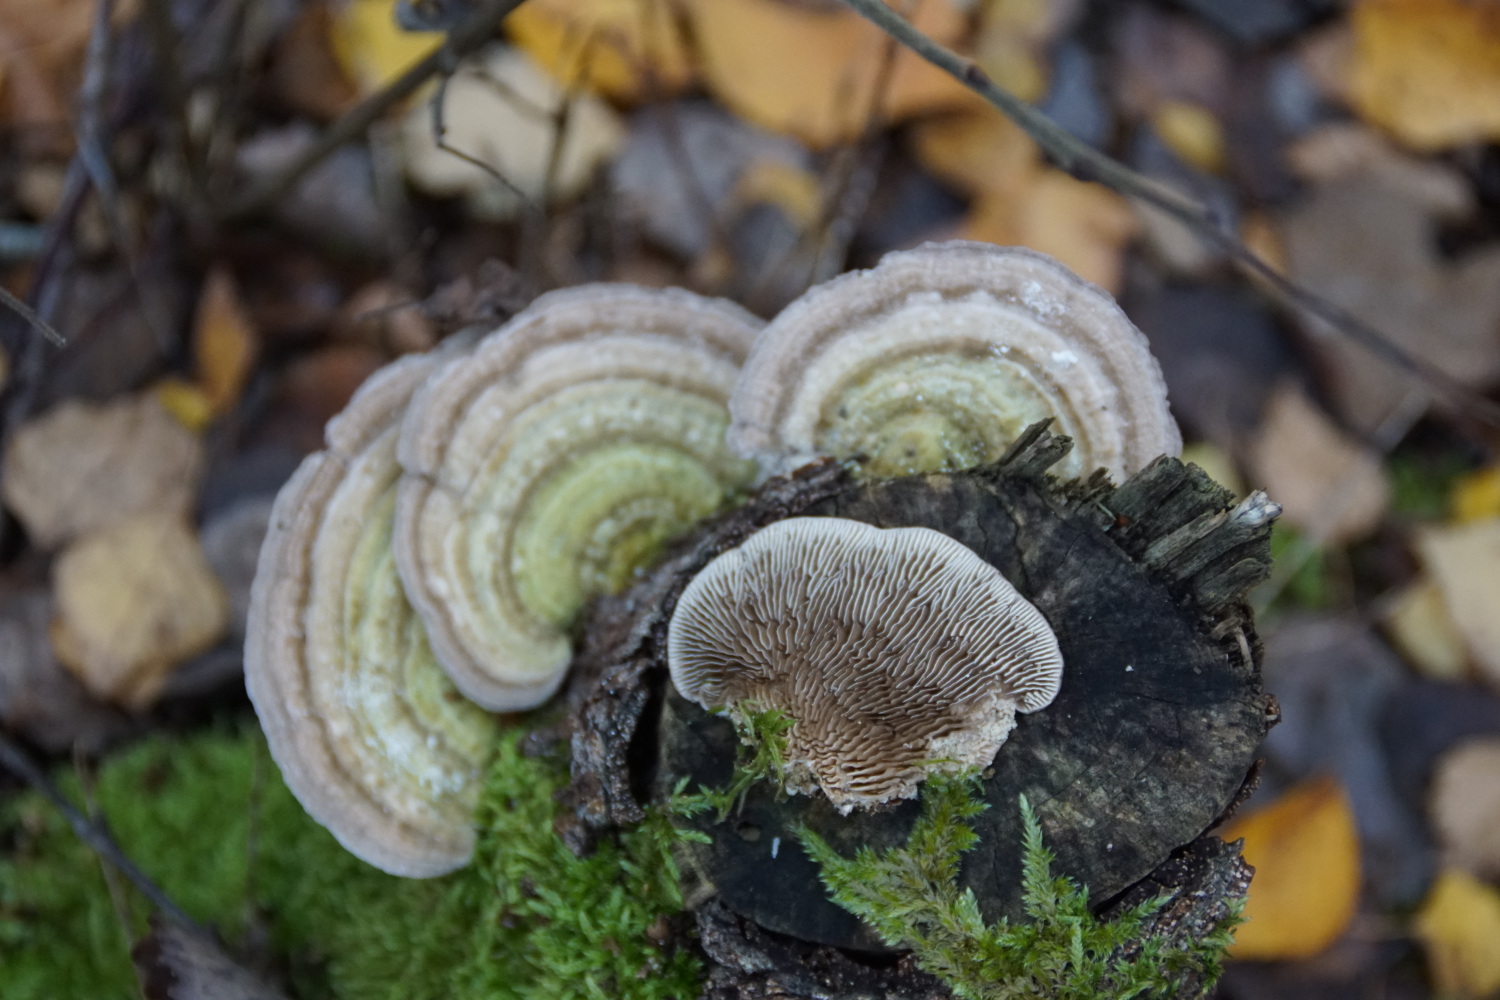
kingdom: Fungi
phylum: Basidiomycota
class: Agaricomycetes
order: Polyporales
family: Polyporaceae
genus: Lenzites
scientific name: Lenzites betulinus
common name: birke-læderporesvamp
